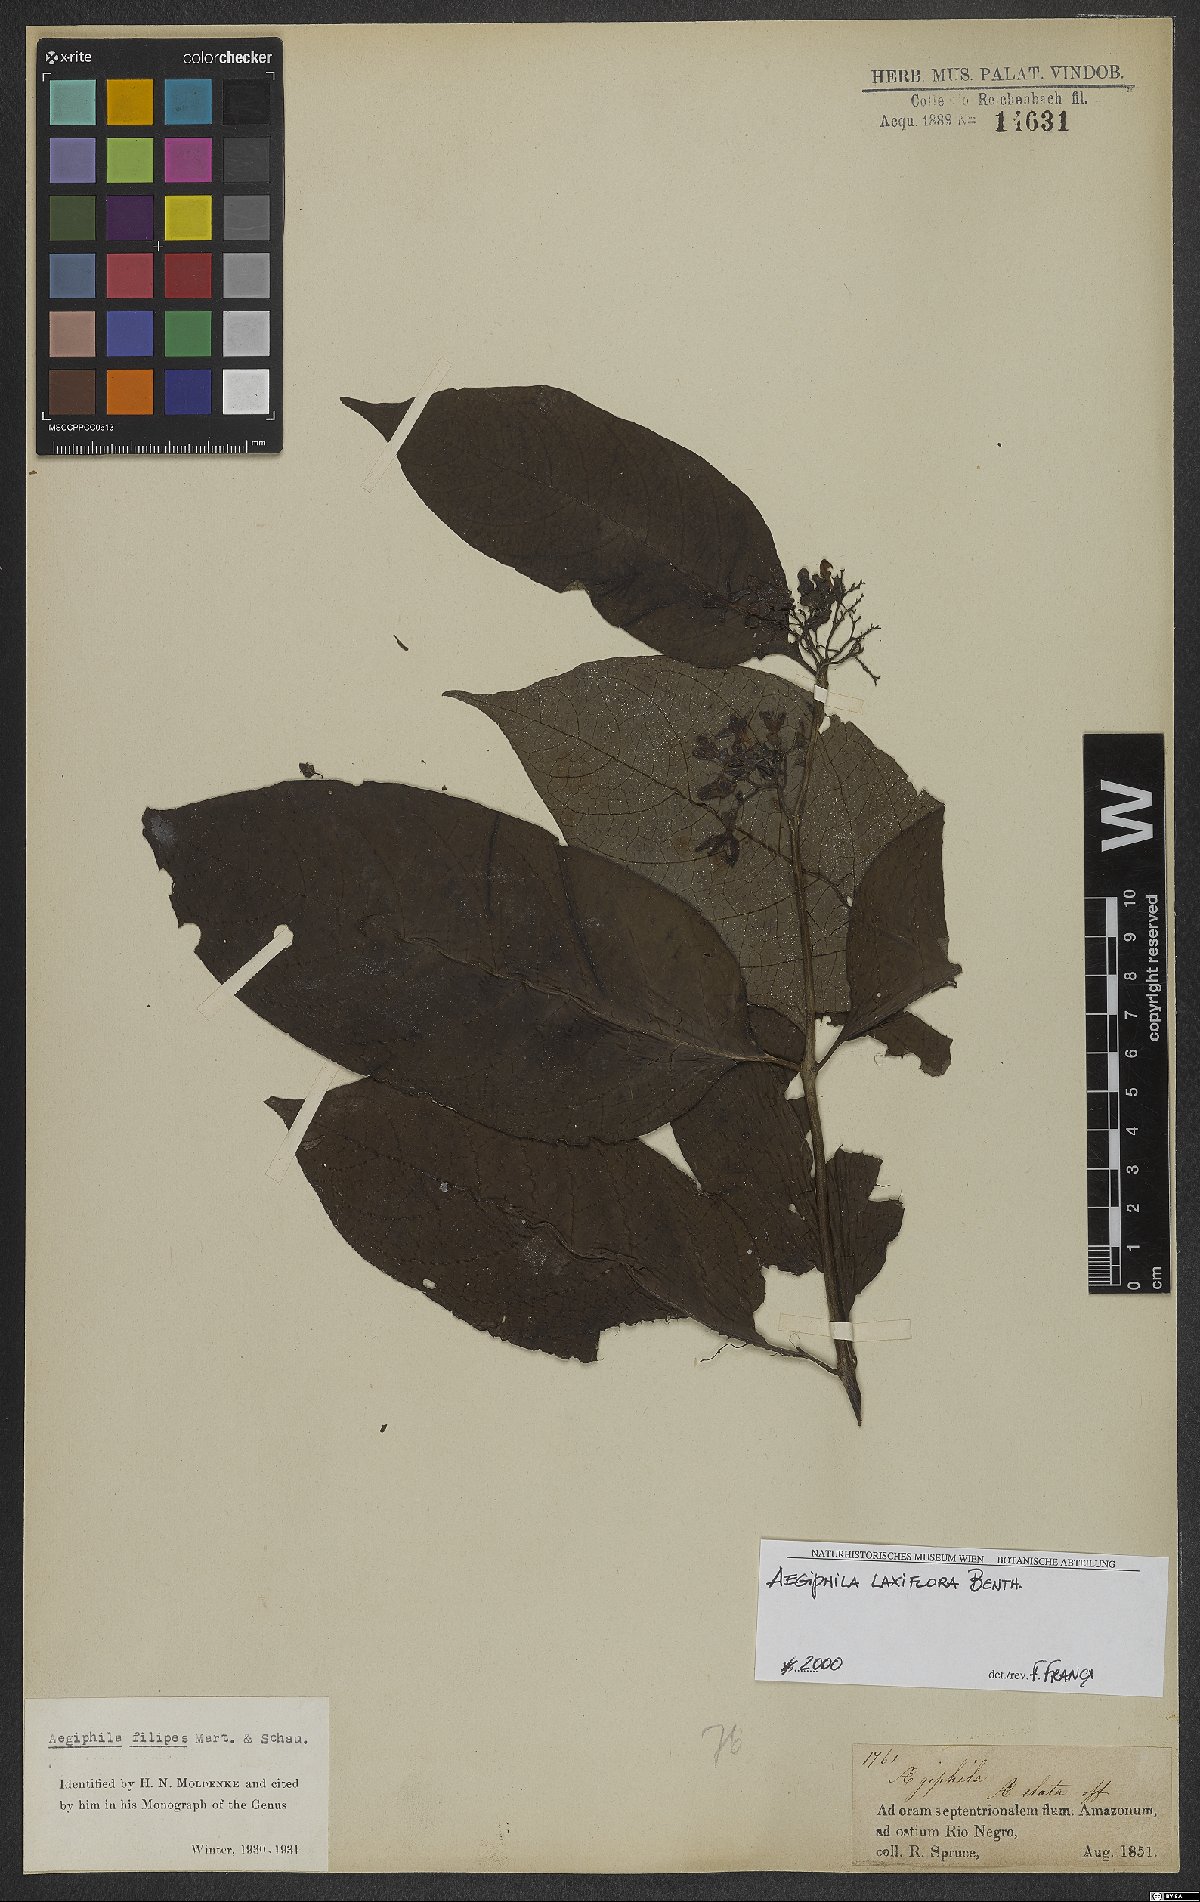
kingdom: Plantae
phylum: Tracheophyta
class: Magnoliopsida
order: Lamiales
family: Lamiaceae
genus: Aegiphila
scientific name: Aegiphila laxiflora
